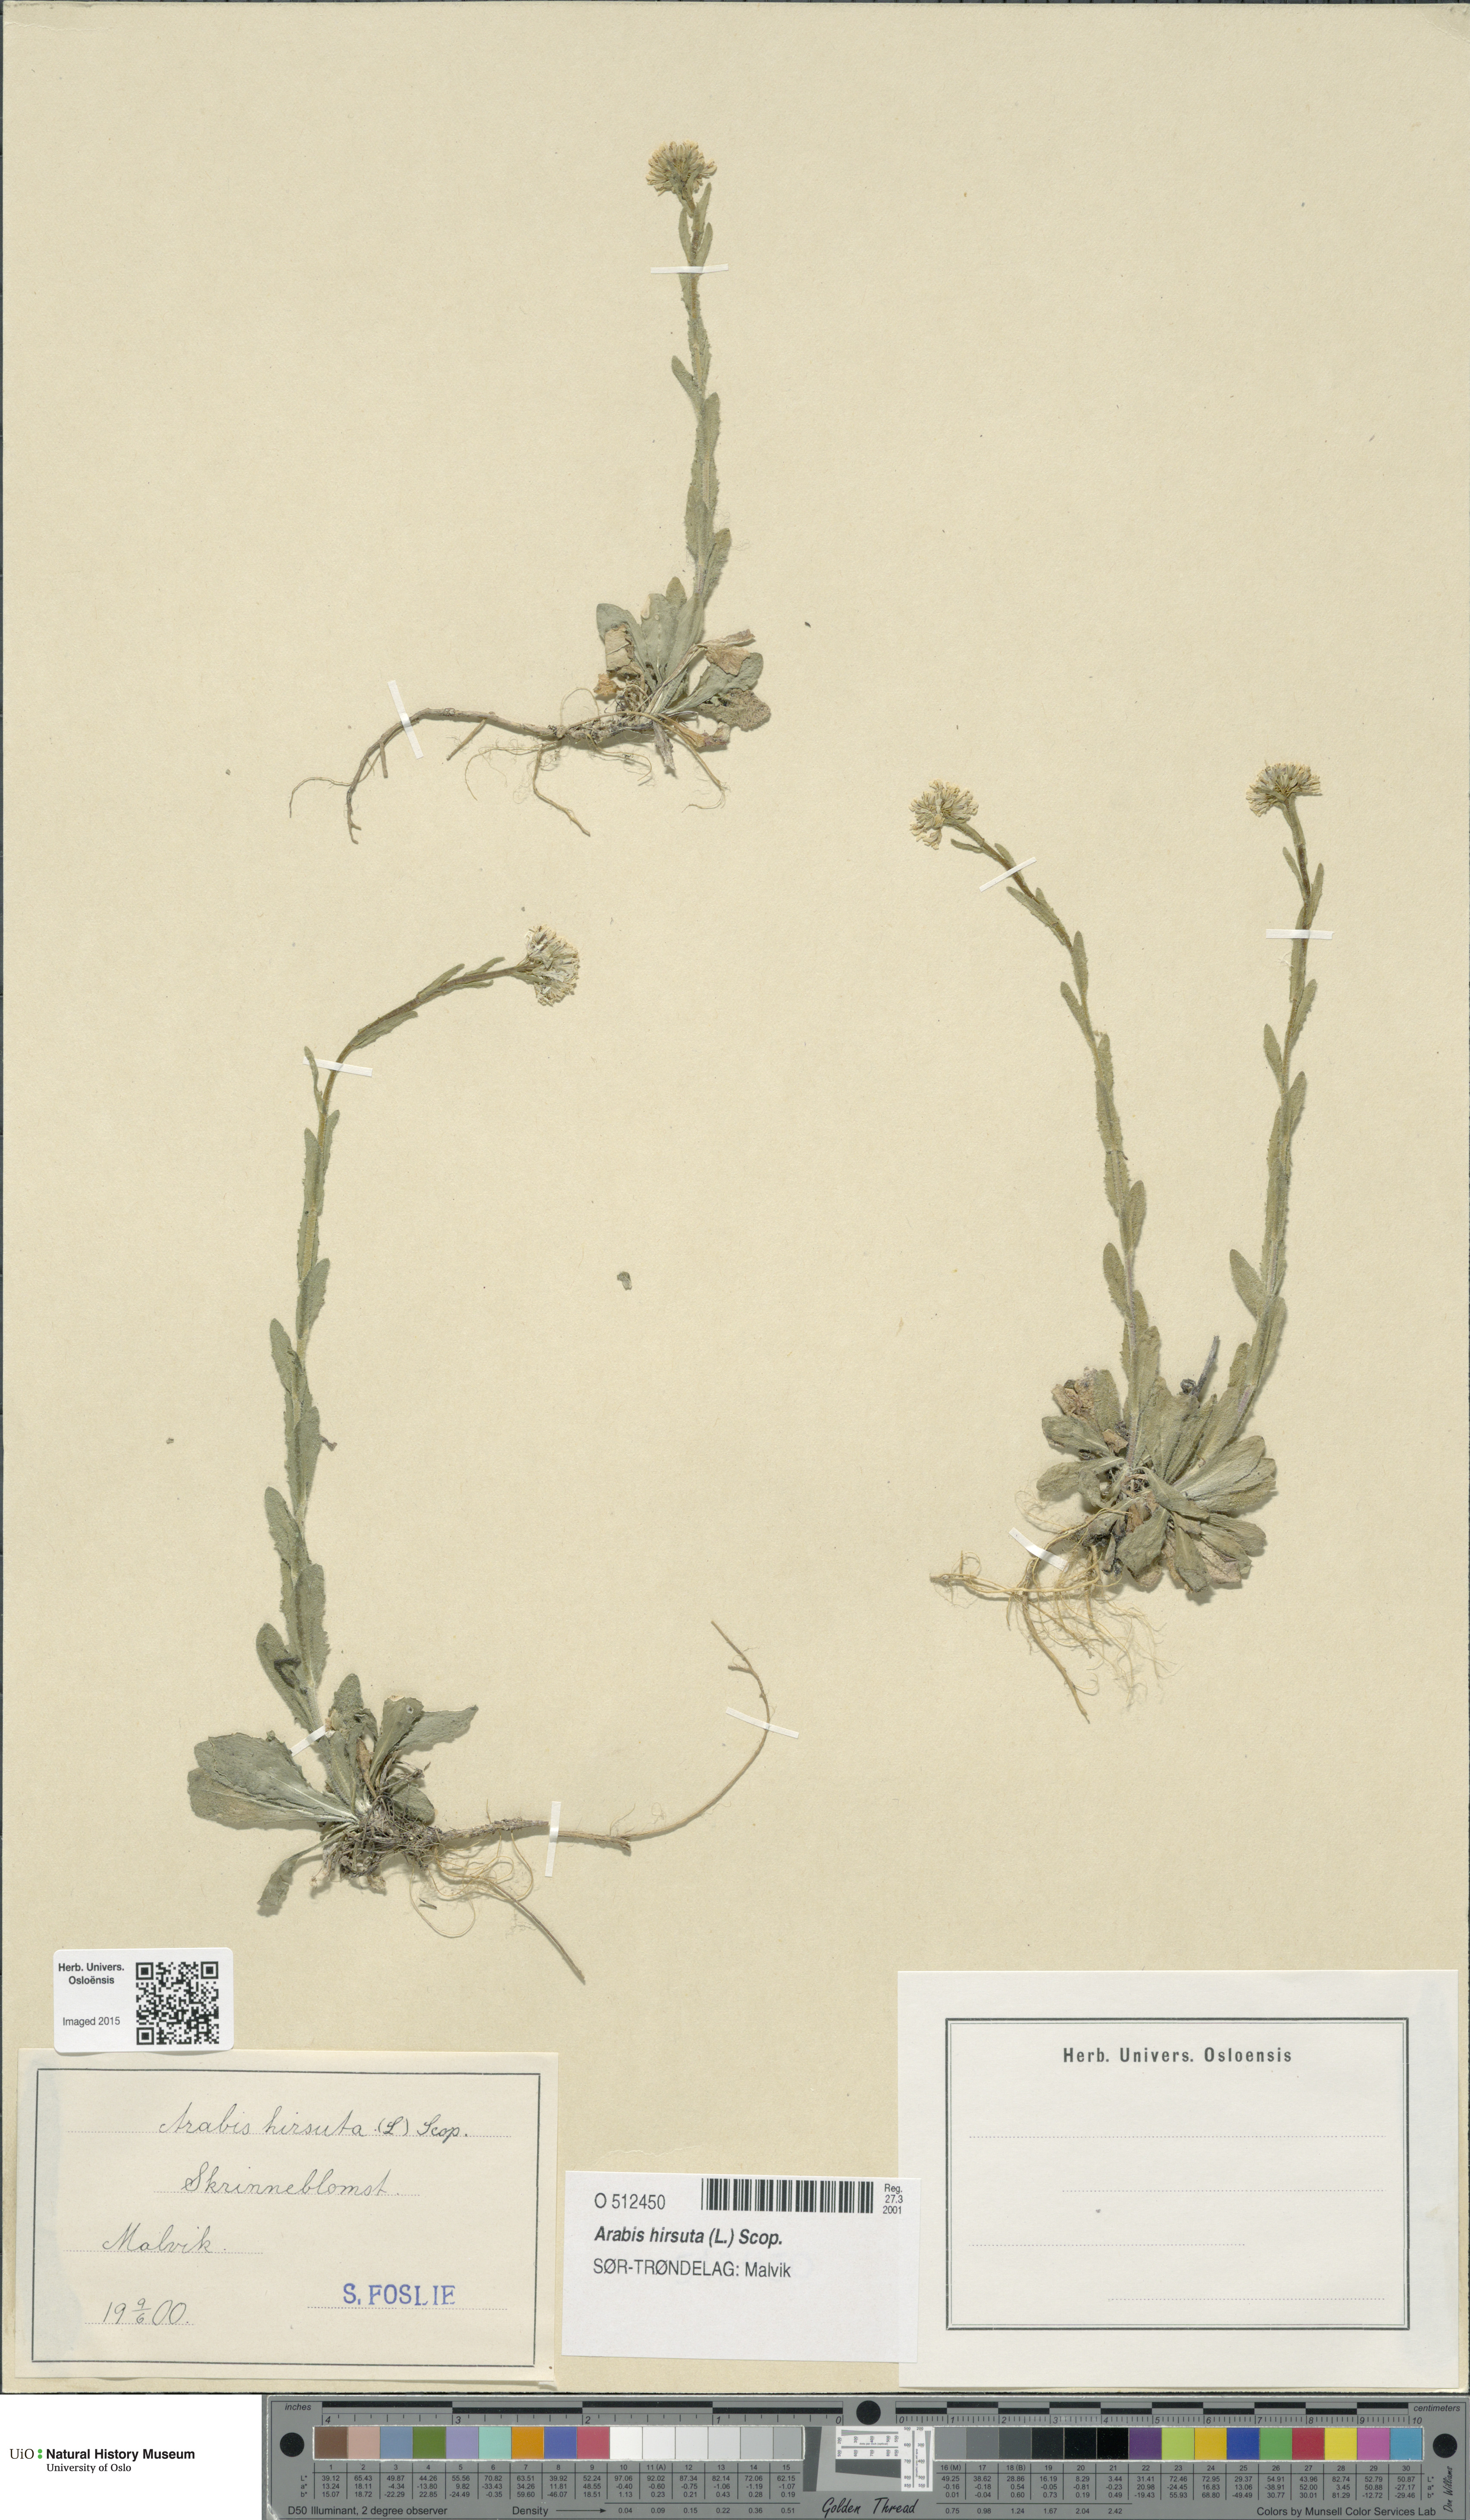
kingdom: Plantae
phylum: Tracheophyta
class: Magnoliopsida
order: Brassicales
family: Brassicaceae
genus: Arabis
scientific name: Arabis hirsuta
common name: Hairy rock-cress
